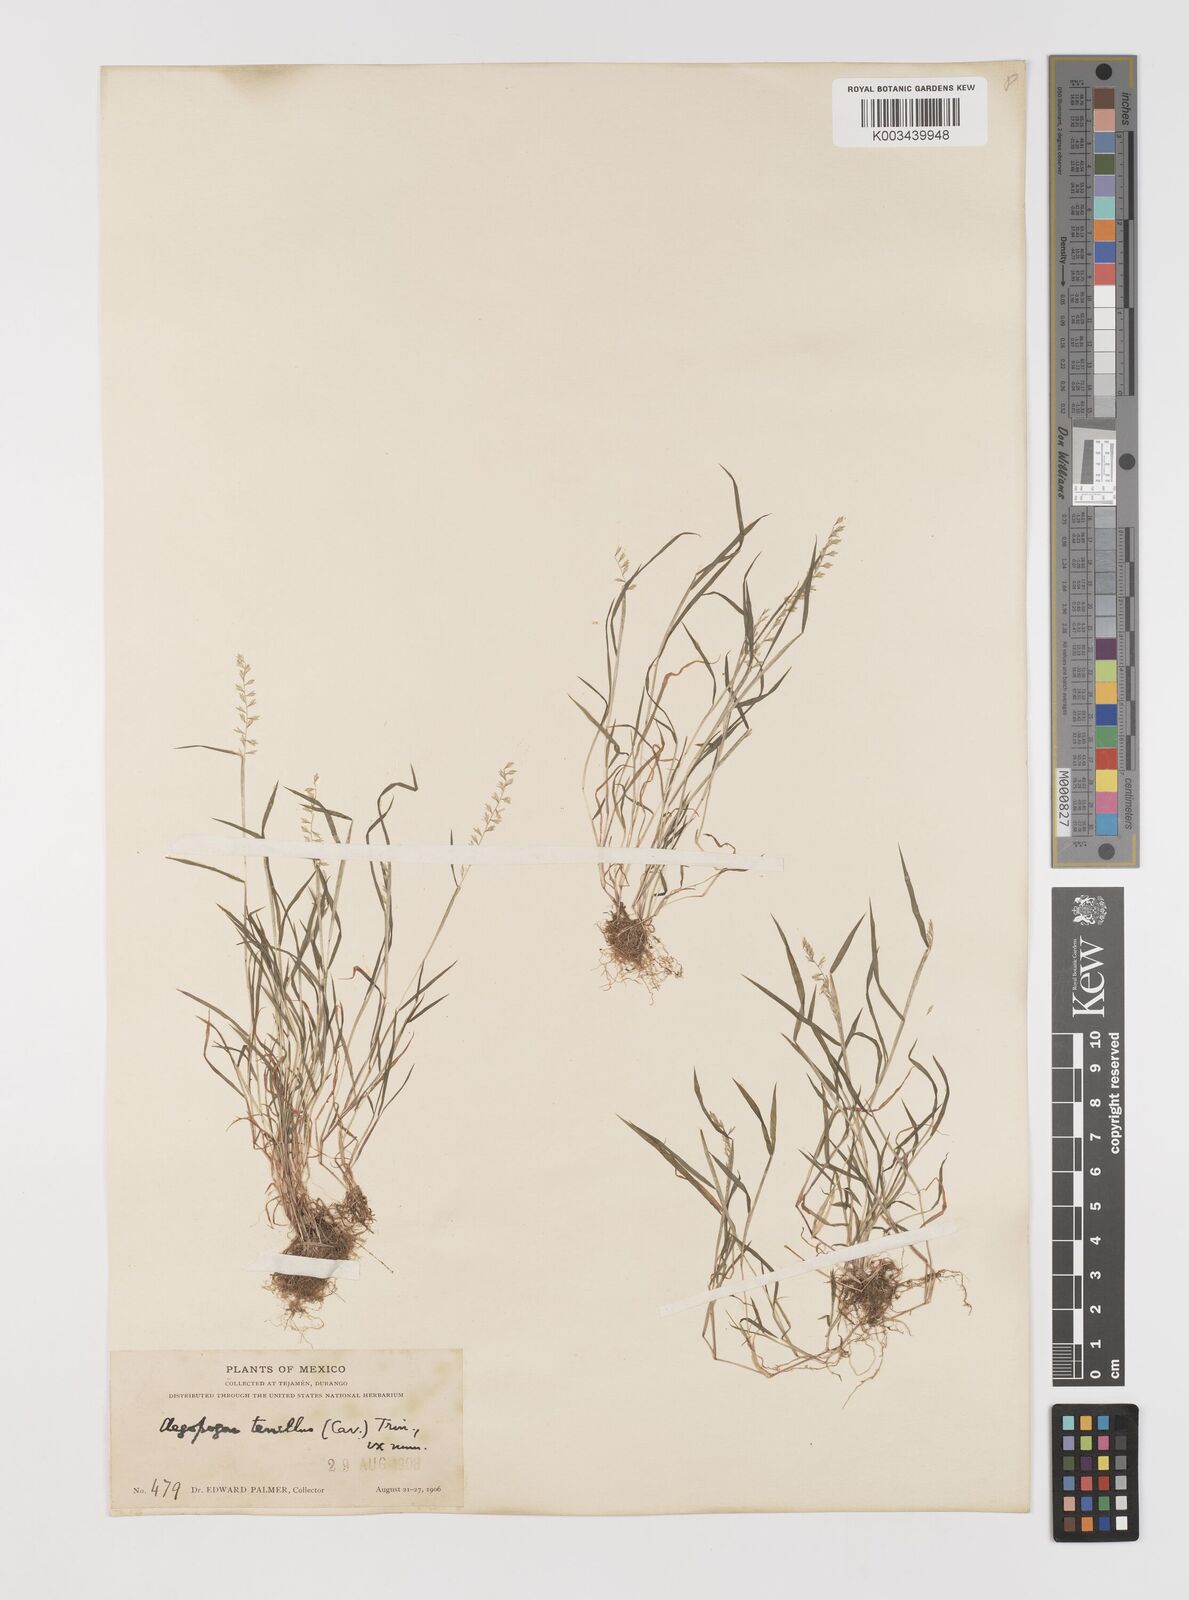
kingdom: Plantae
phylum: Tracheophyta
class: Liliopsida
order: Poales
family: Poaceae
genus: Muhlenbergia
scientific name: Muhlenbergia uniseta
